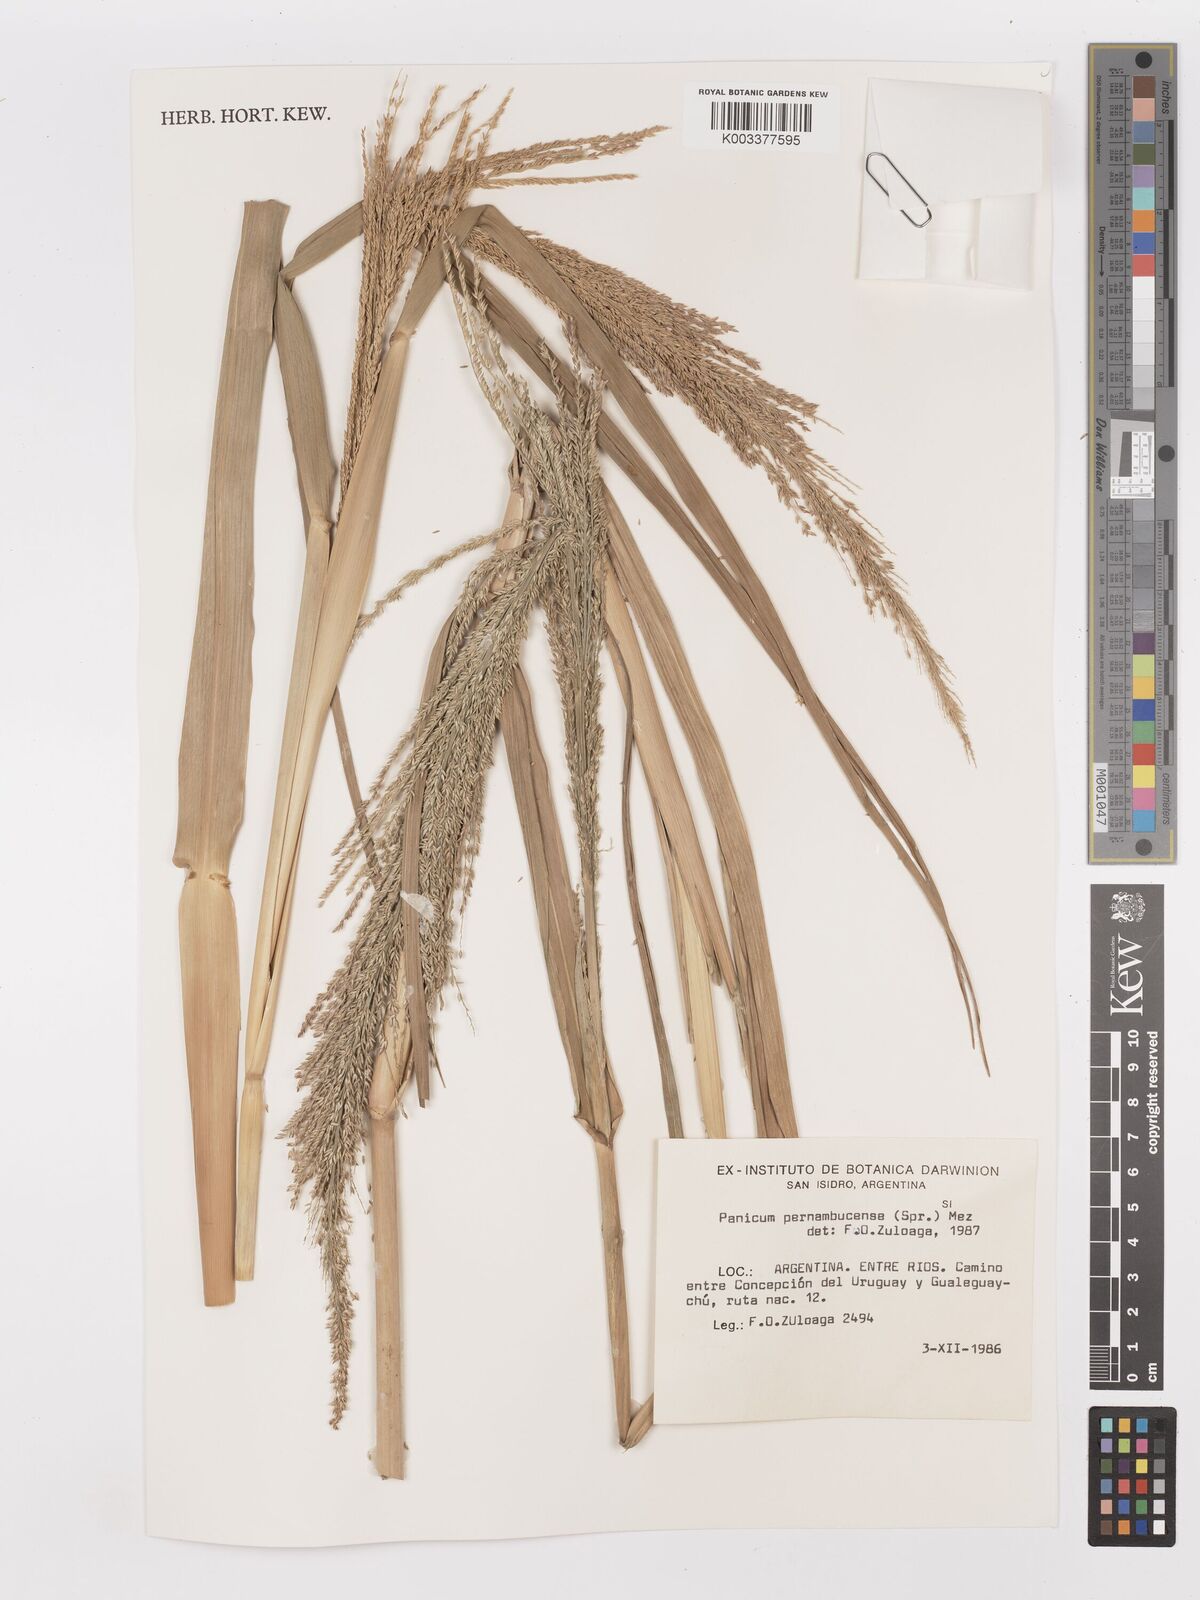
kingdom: Plantae
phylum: Tracheophyta
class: Liliopsida
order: Poales
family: Poaceae
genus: Hymenachne
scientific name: Hymenachne pernambucensis
